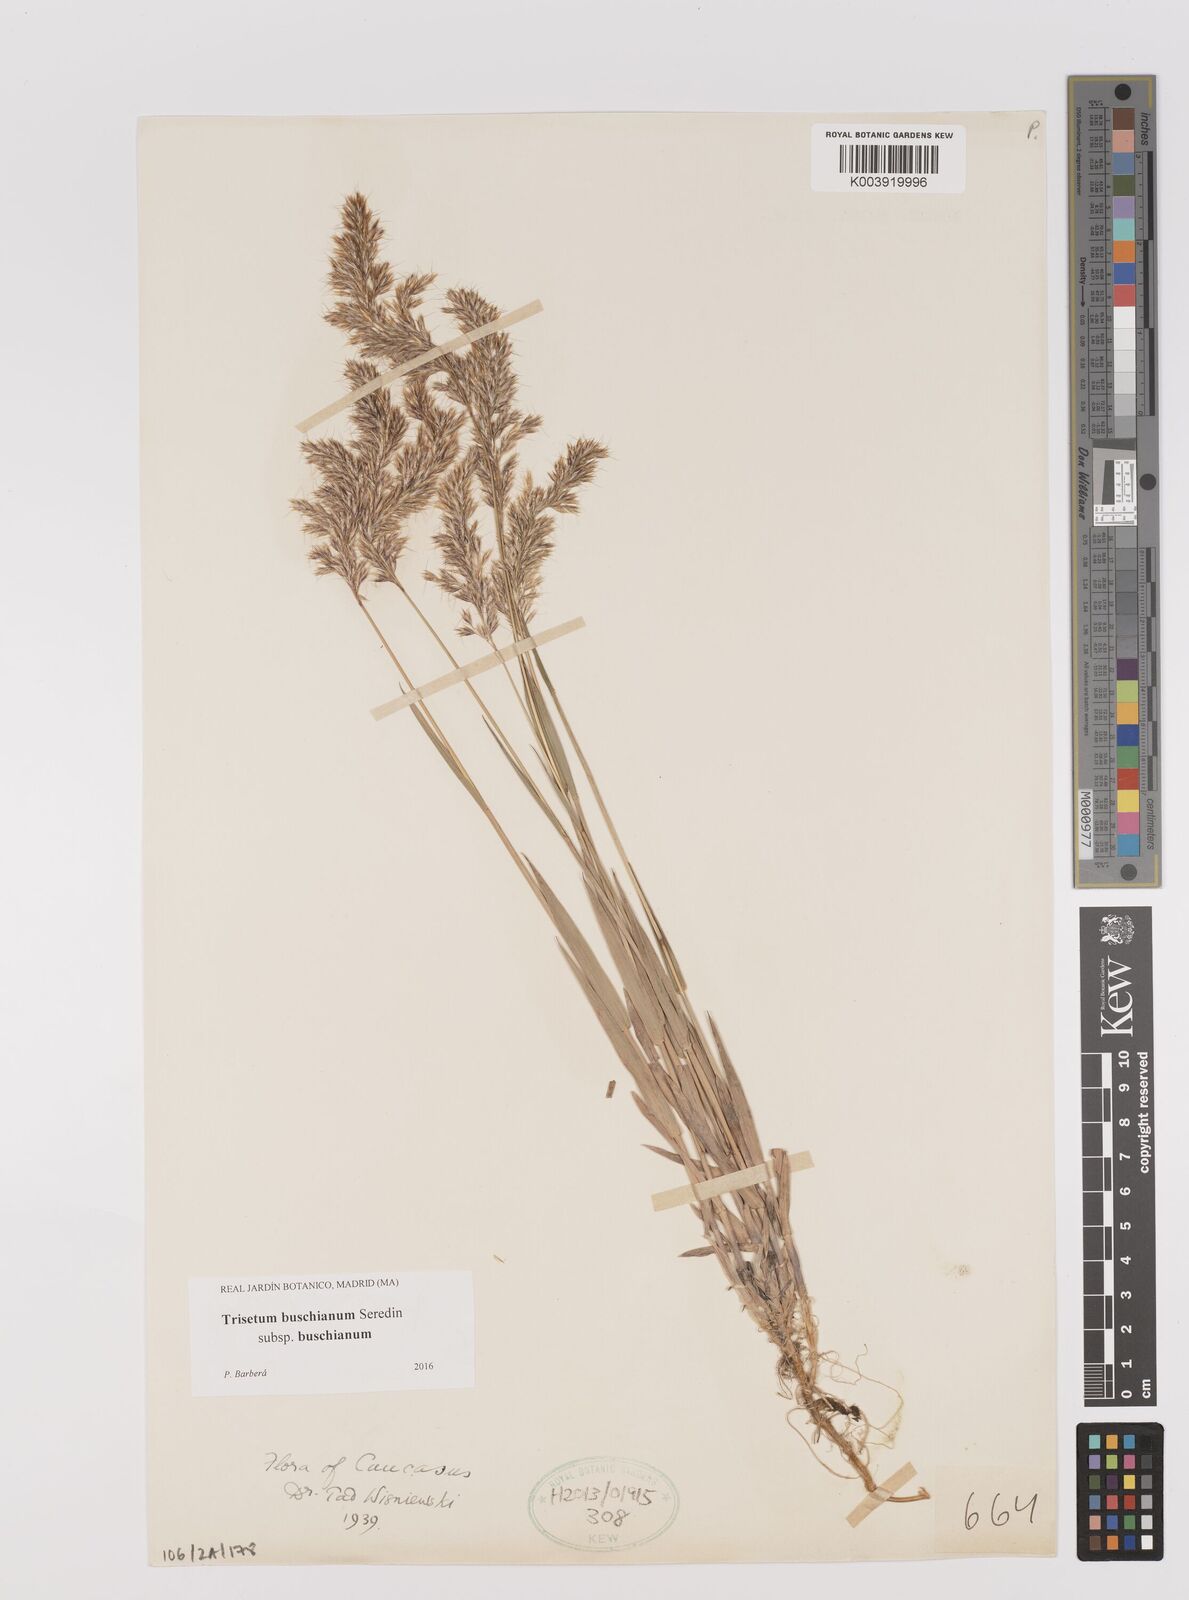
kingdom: Plantae
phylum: Tracheophyta
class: Liliopsida
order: Poales
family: Poaceae
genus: Trisetum
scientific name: Trisetum buschianum
